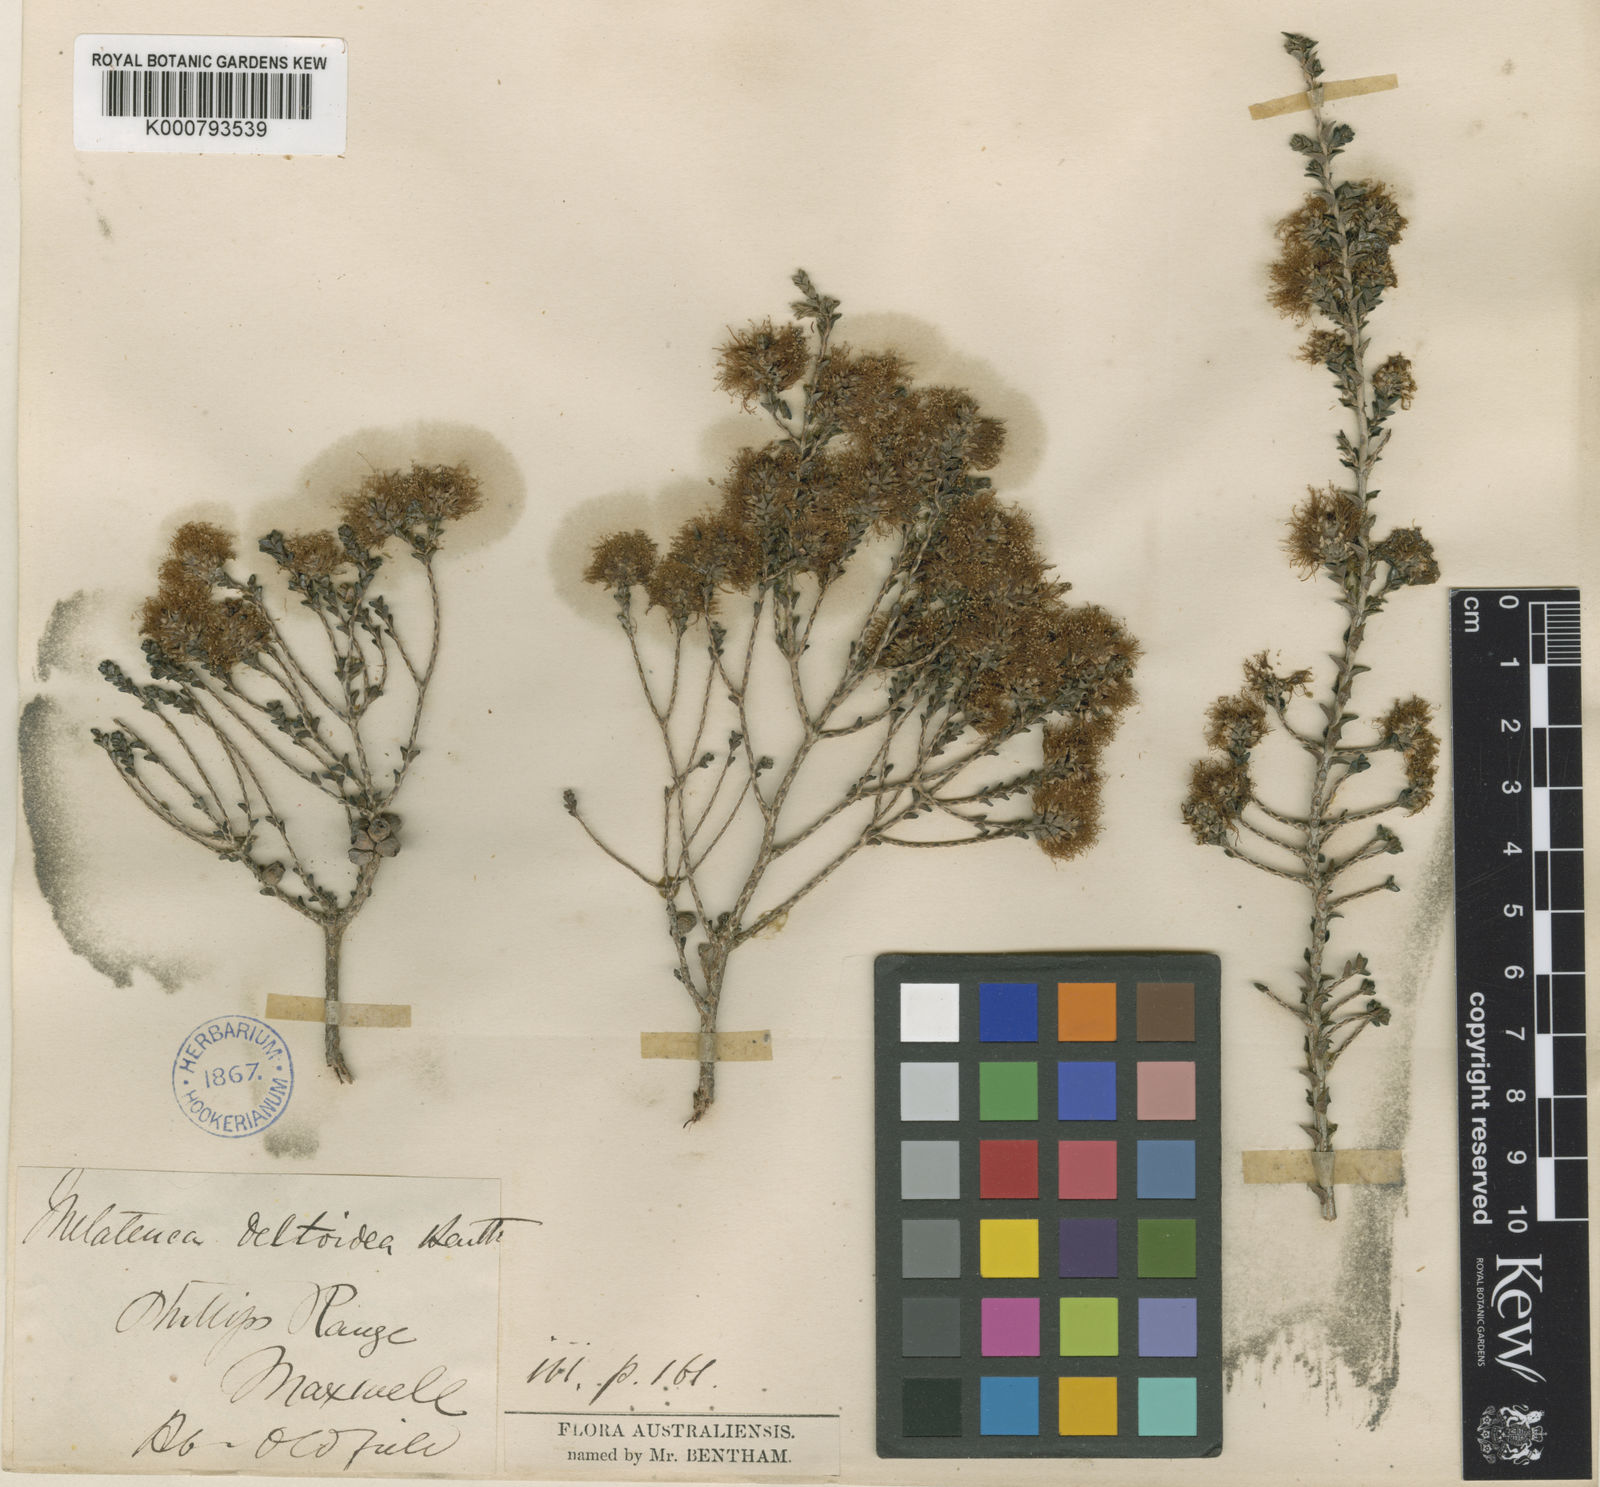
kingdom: Plantae
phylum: Tracheophyta
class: Magnoliopsida
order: Myrtales
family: Myrtaceae
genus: Melaleuca
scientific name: Melaleuca cucullata
